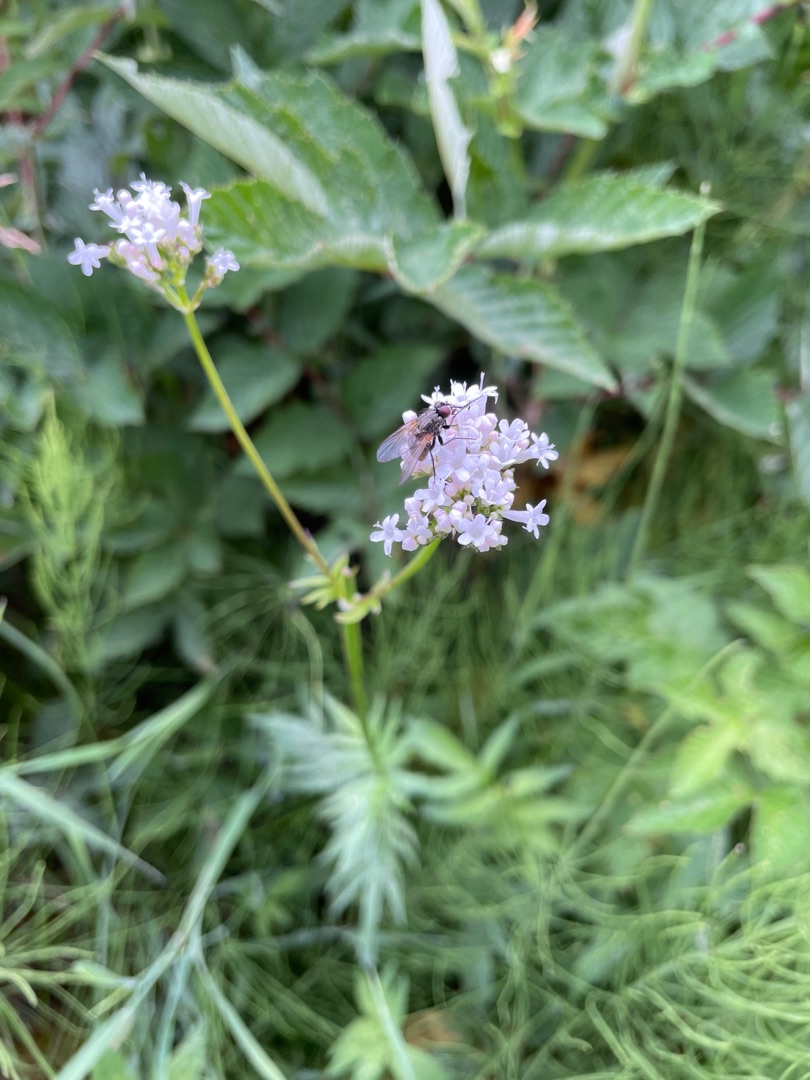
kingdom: Plantae
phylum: Tracheophyta
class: Magnoliopsida
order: Dipsacales
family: Caprifoliaceae
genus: Valeriana
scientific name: Valeriana sambucifolia
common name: Hyldebladet baldrian
